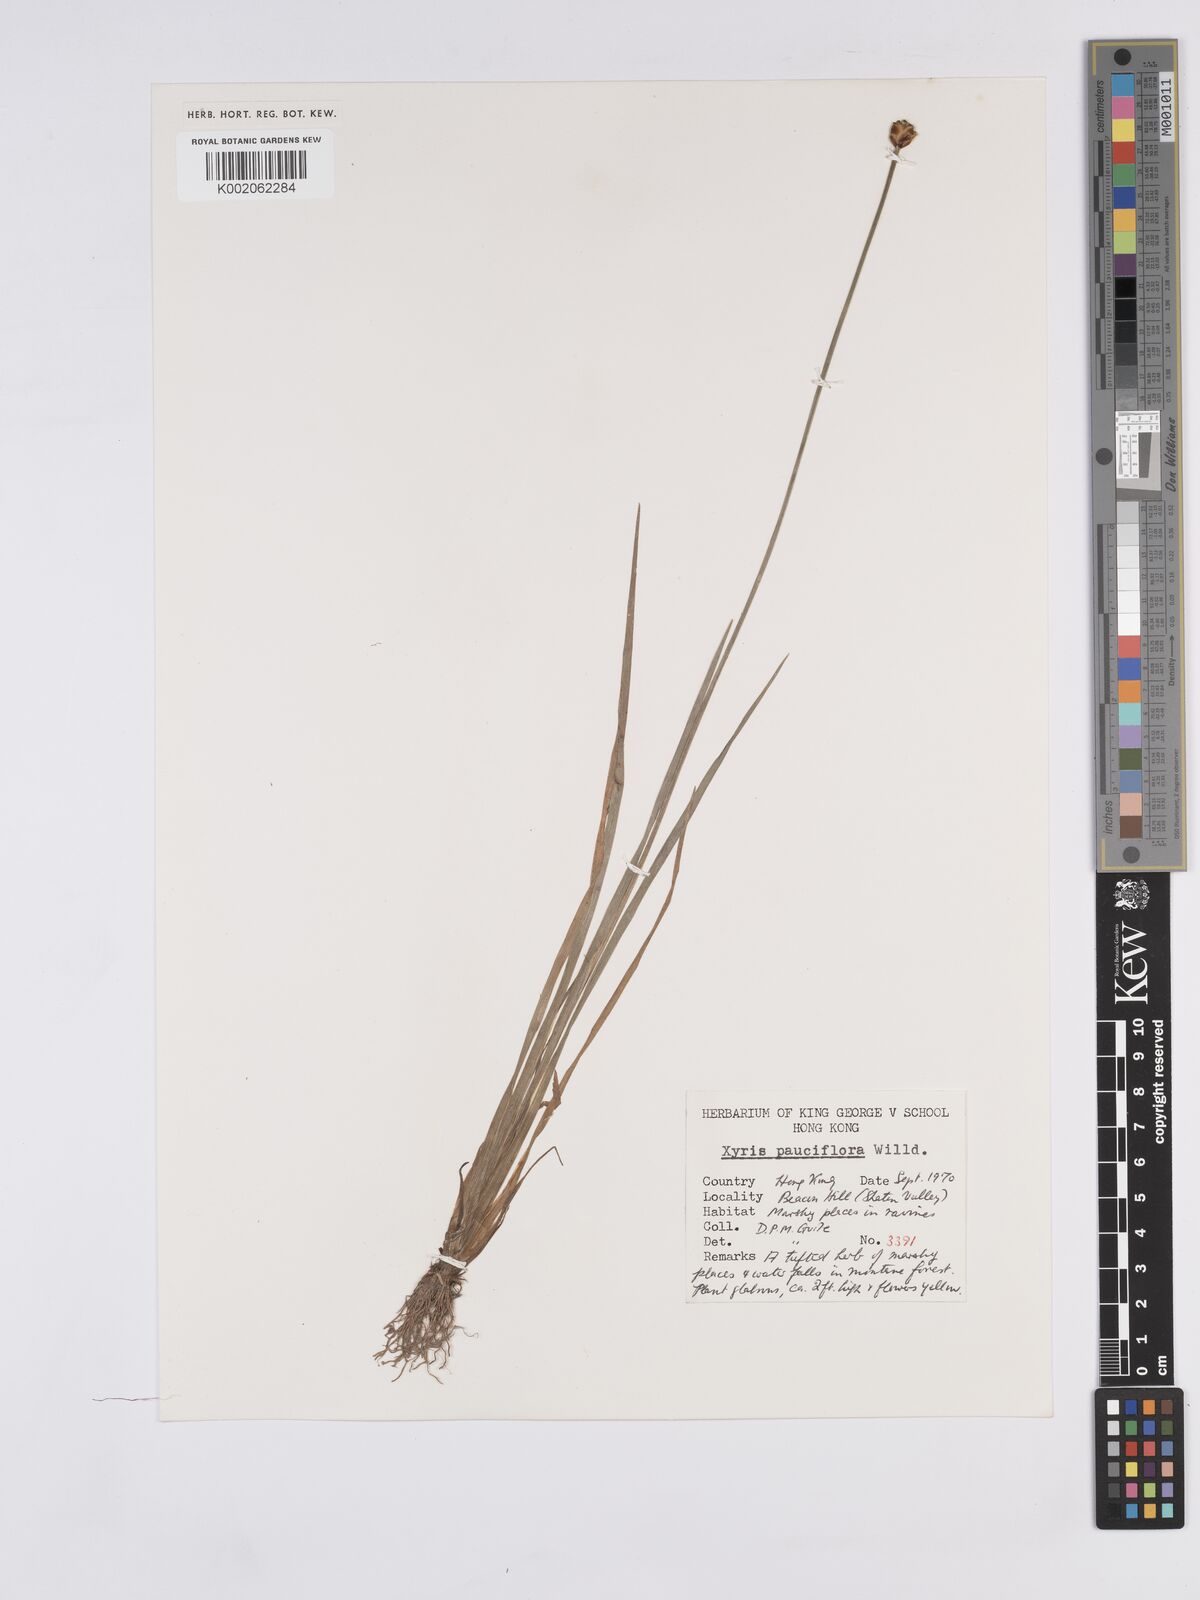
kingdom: Plantae
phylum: Tracheophyta
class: Liliopsida
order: Poales
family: Xyridaceae
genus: Xyris
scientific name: Xyris pauciflora
